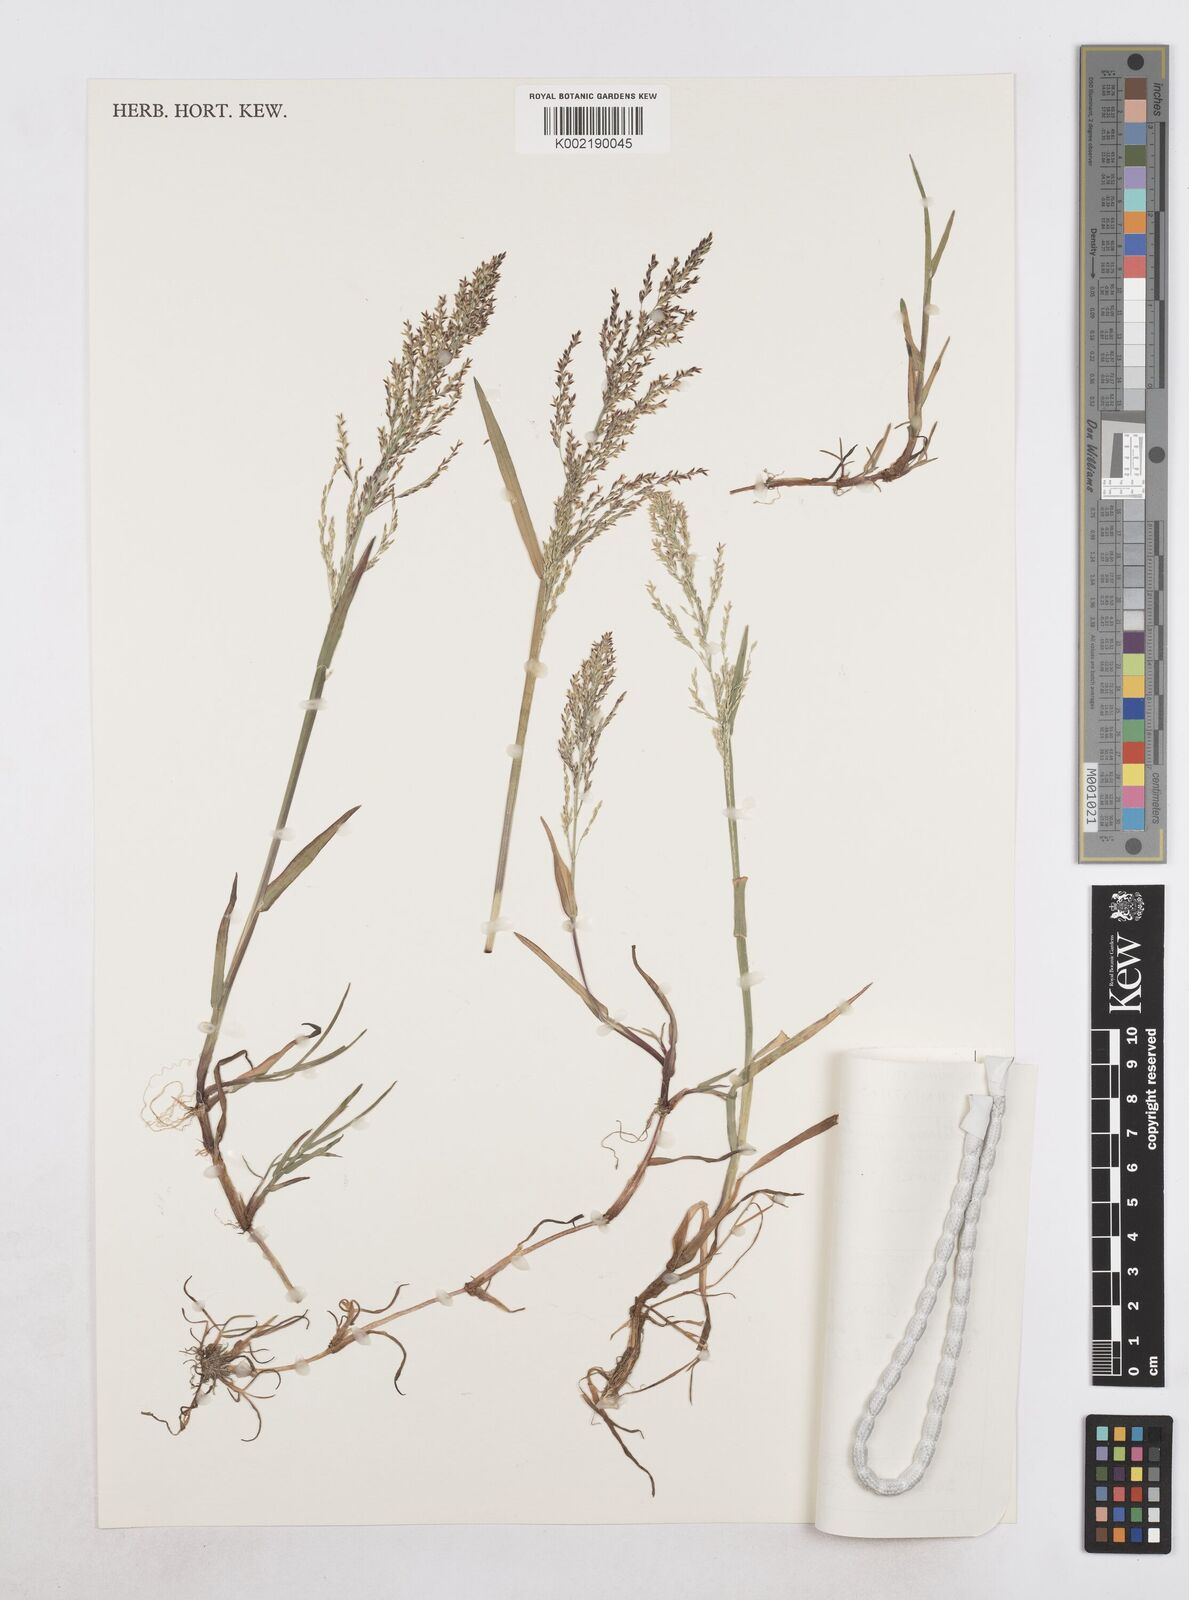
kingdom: Plantae
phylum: Tracheophyta
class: Liliopsida
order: Poales
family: Poaceae
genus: Catabrosa
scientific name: Catabrosa aquatica
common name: Whorl-grass
